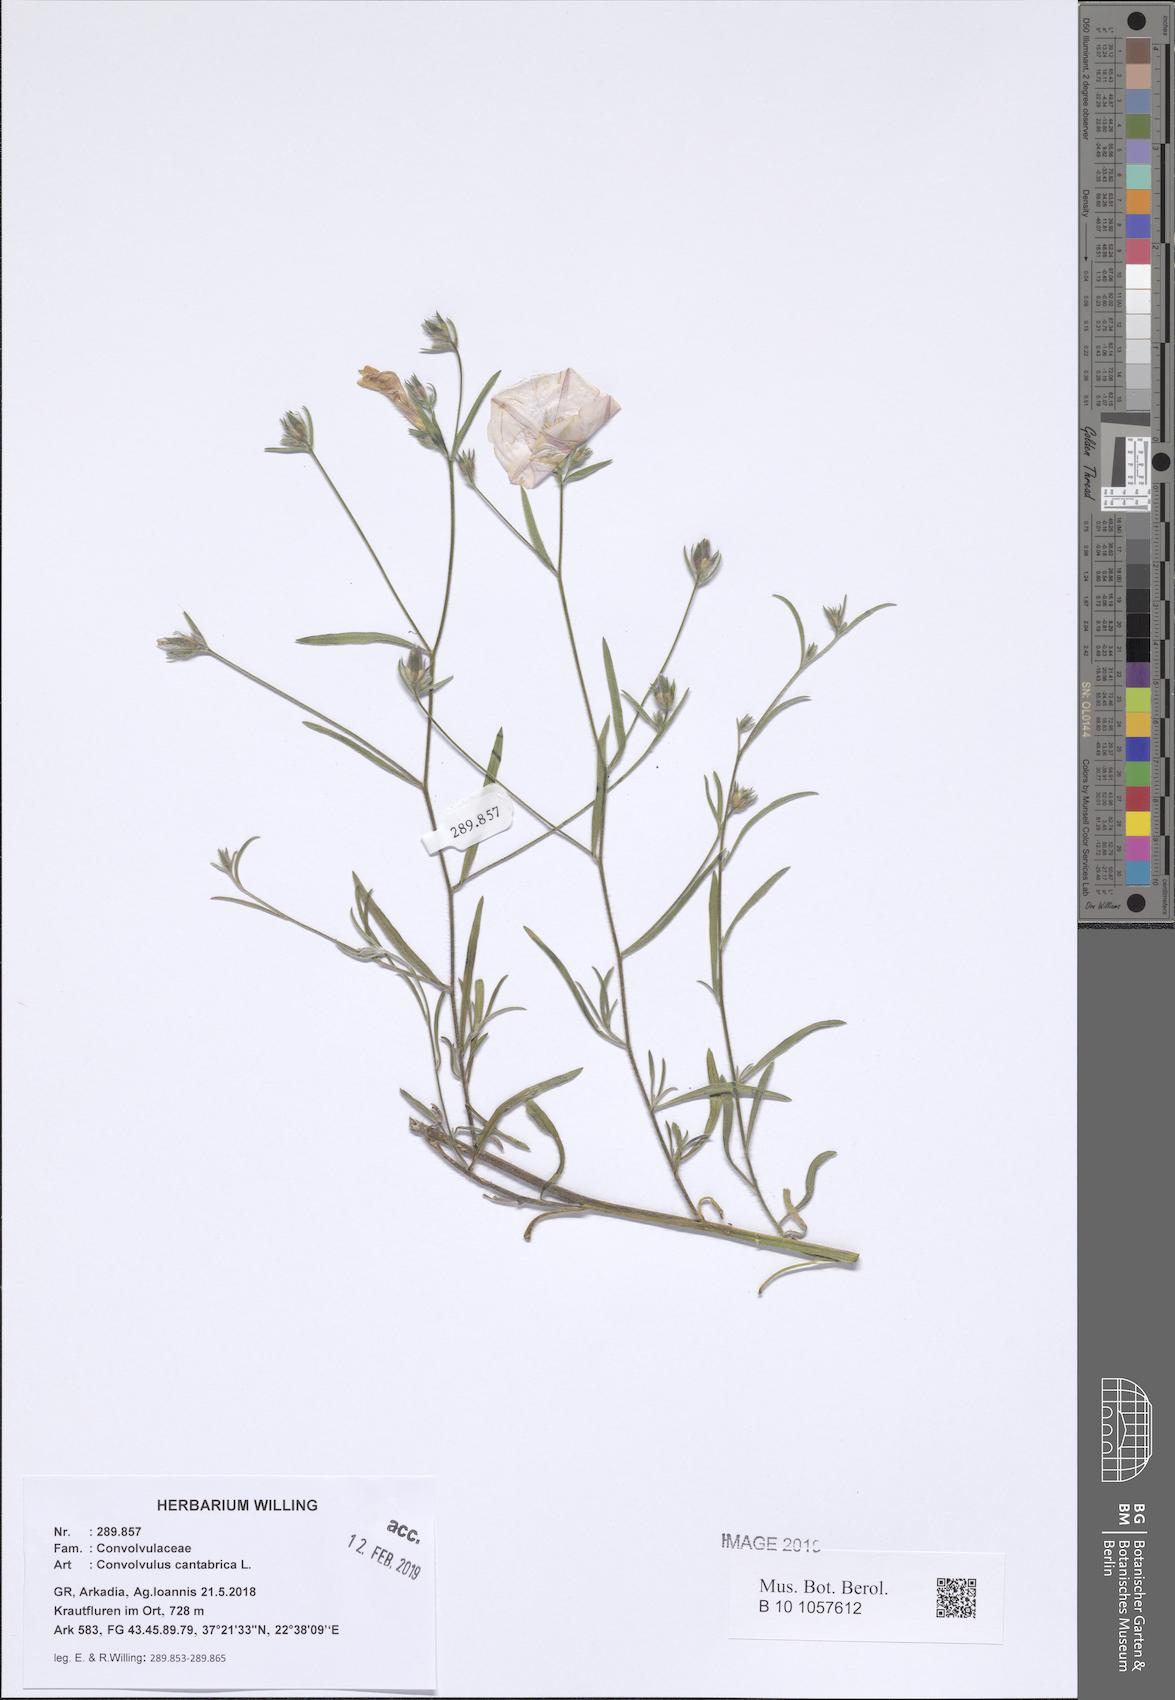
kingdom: Plantae
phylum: Tracheophyta
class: Magnoliopsida
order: Solanales
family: Convolvulaceae
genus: Convolvulus
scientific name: Convolvulus cantabrica
